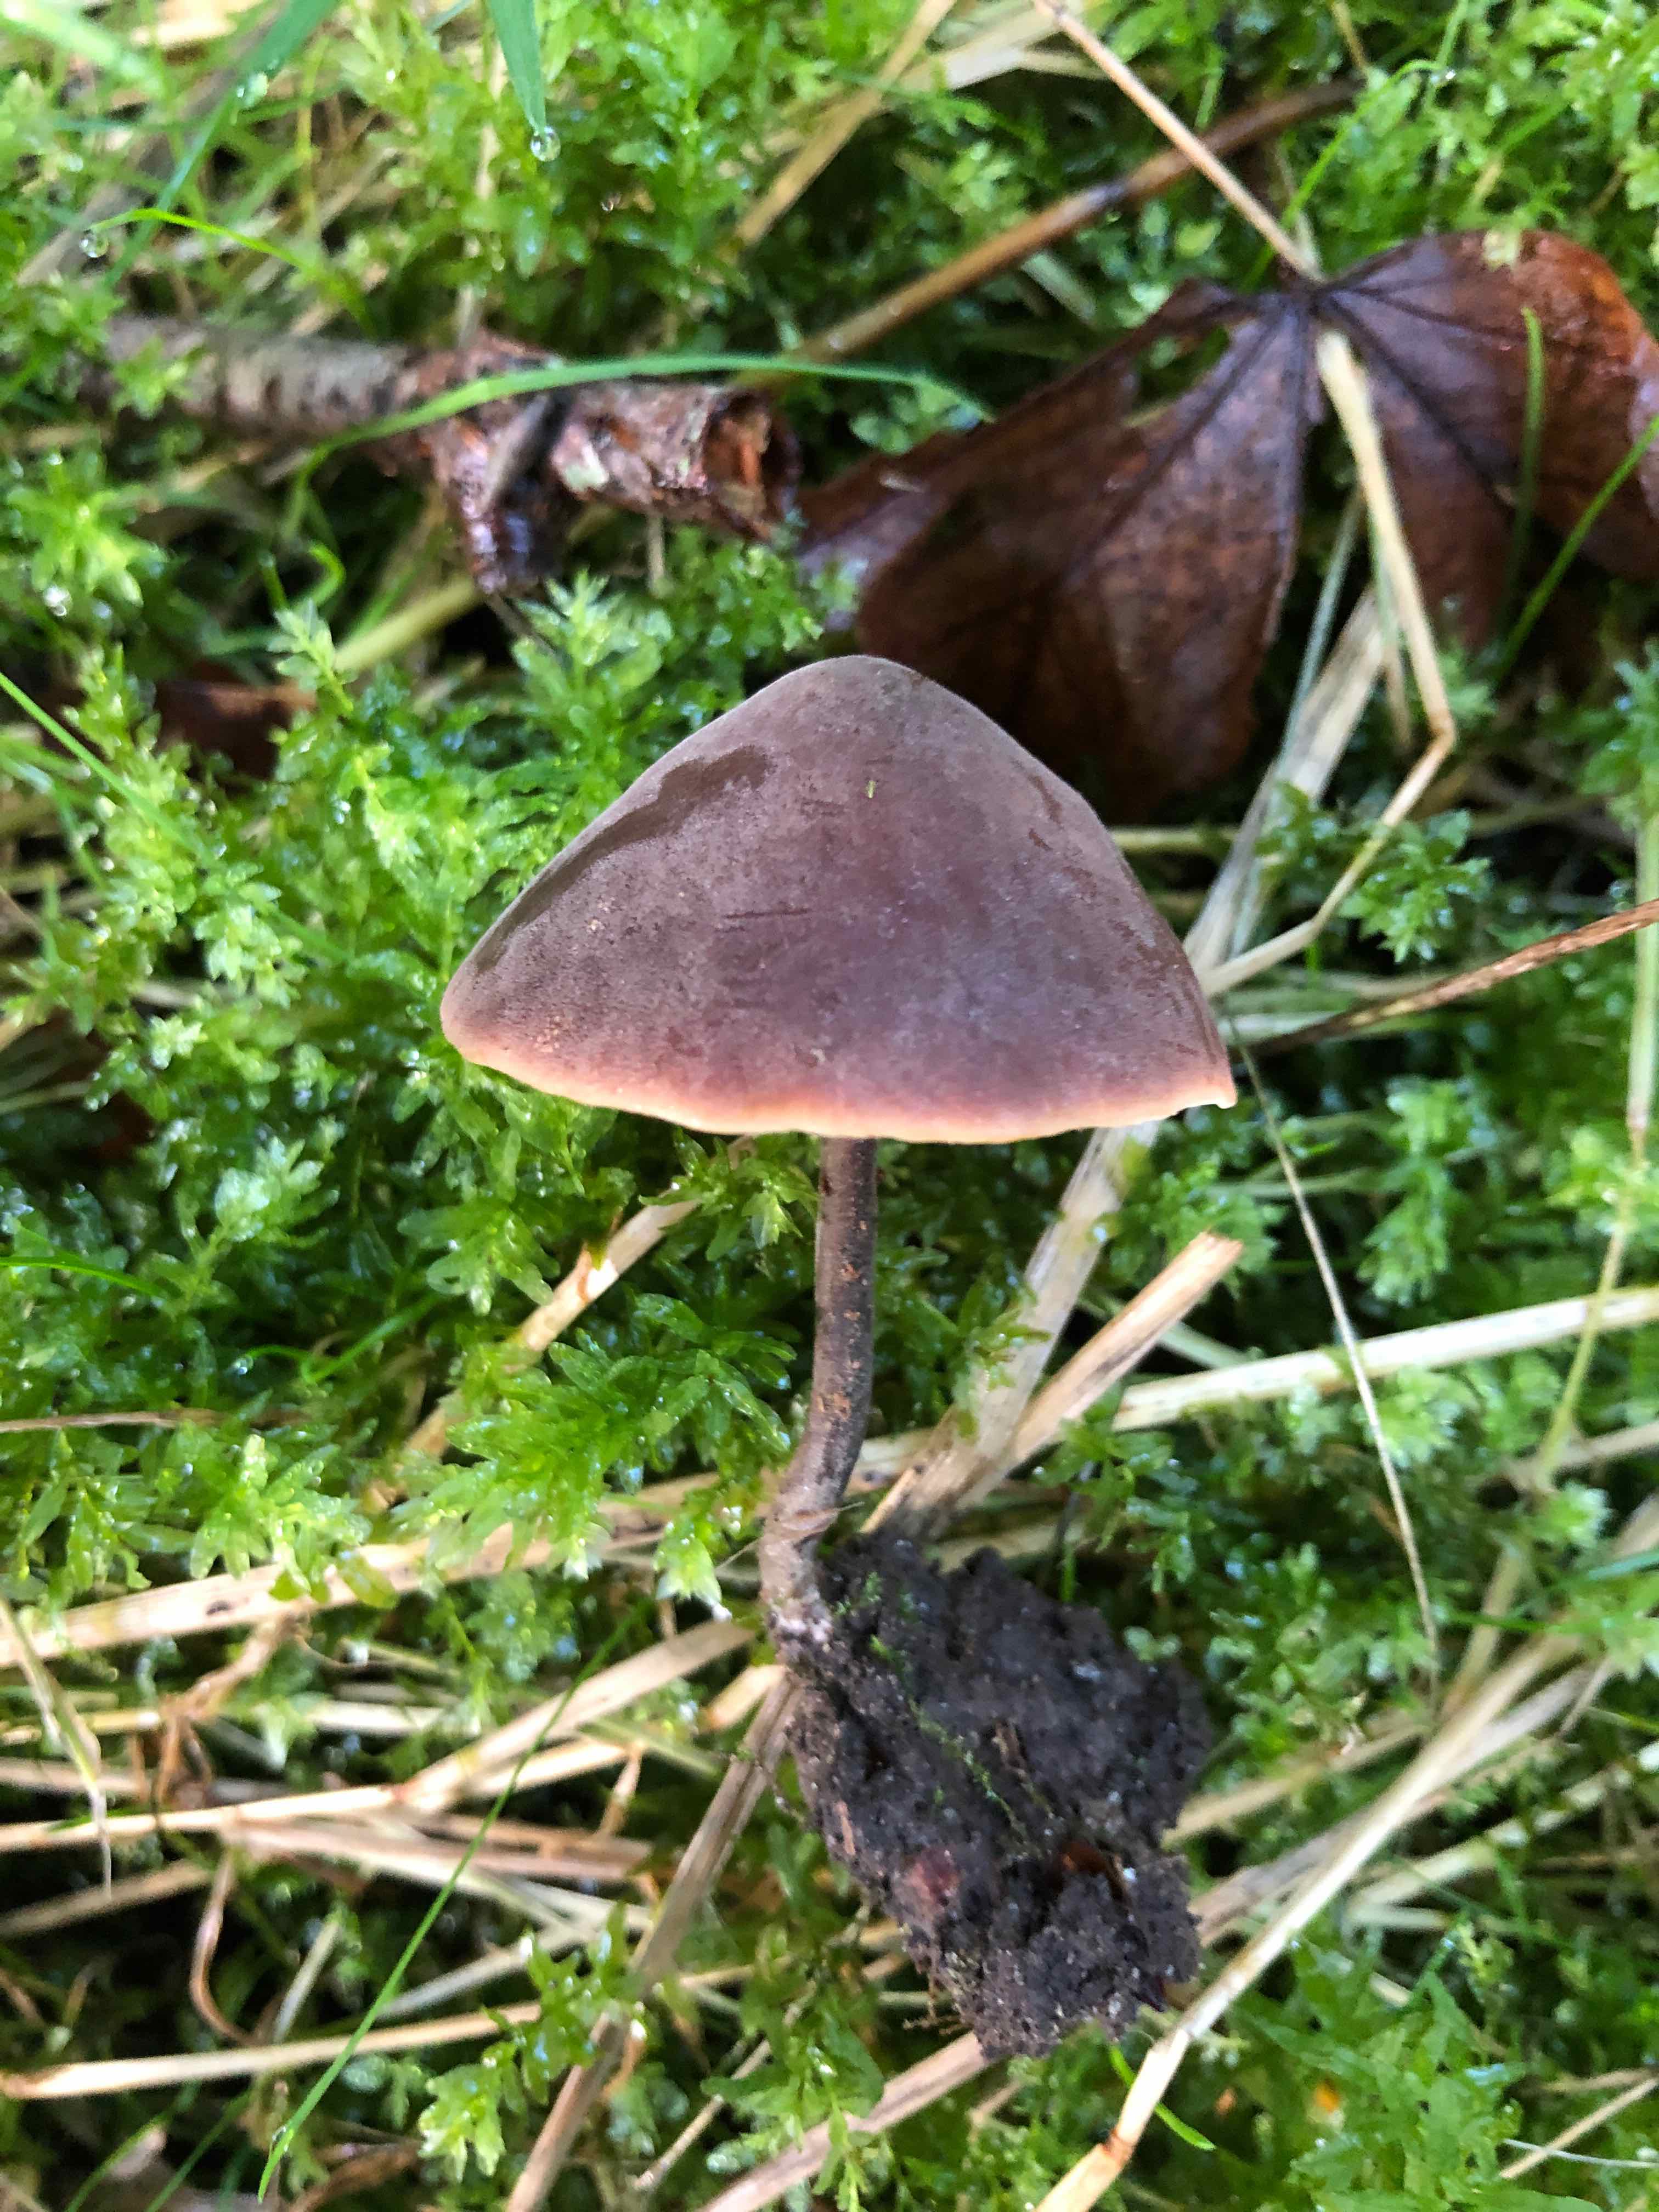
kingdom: Fungi
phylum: Basidiomycota
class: Agaricomycetes
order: Agaricales
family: Macrocystidiaceae
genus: Macrocystidia
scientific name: Macrocystidia cucumis
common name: agurkehat
